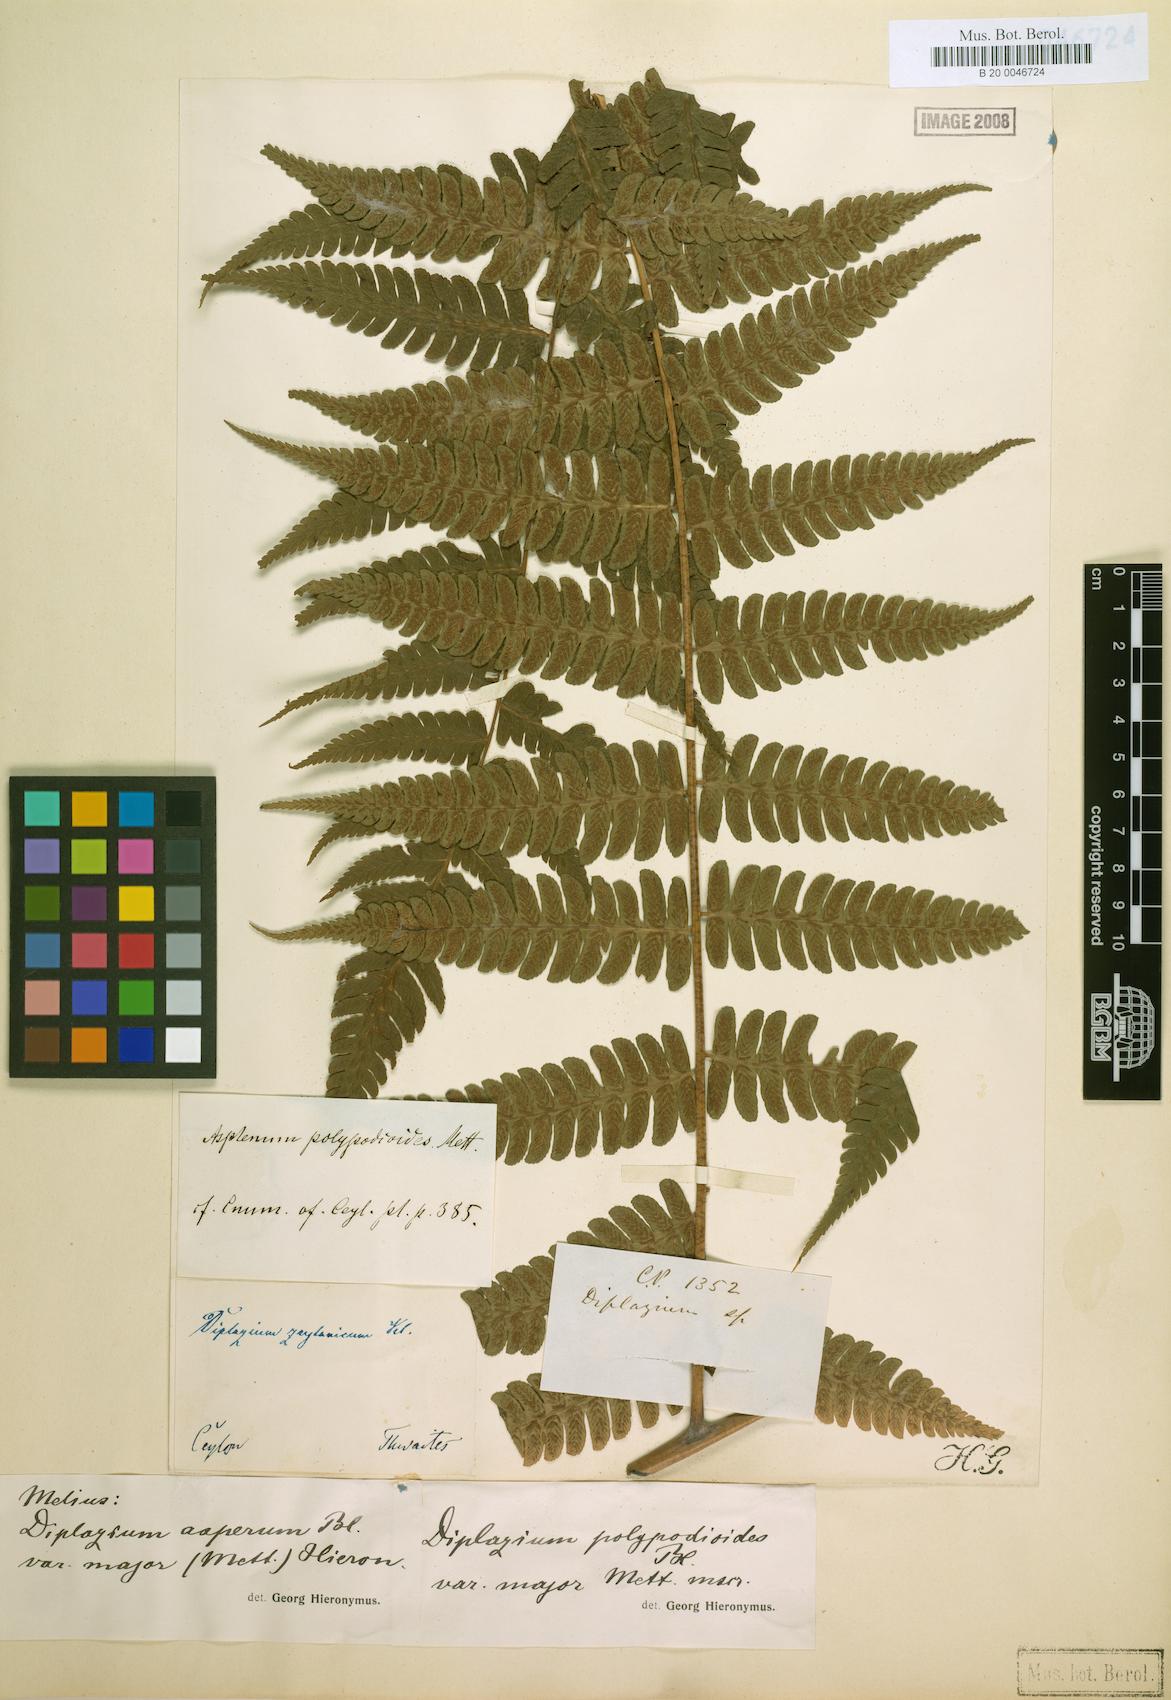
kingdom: Plantae
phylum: Tracheophyta
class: Polypodiopsida
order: Polypodiales
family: Athyriaceae
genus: Diplazium
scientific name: Diplazium polypodioides
